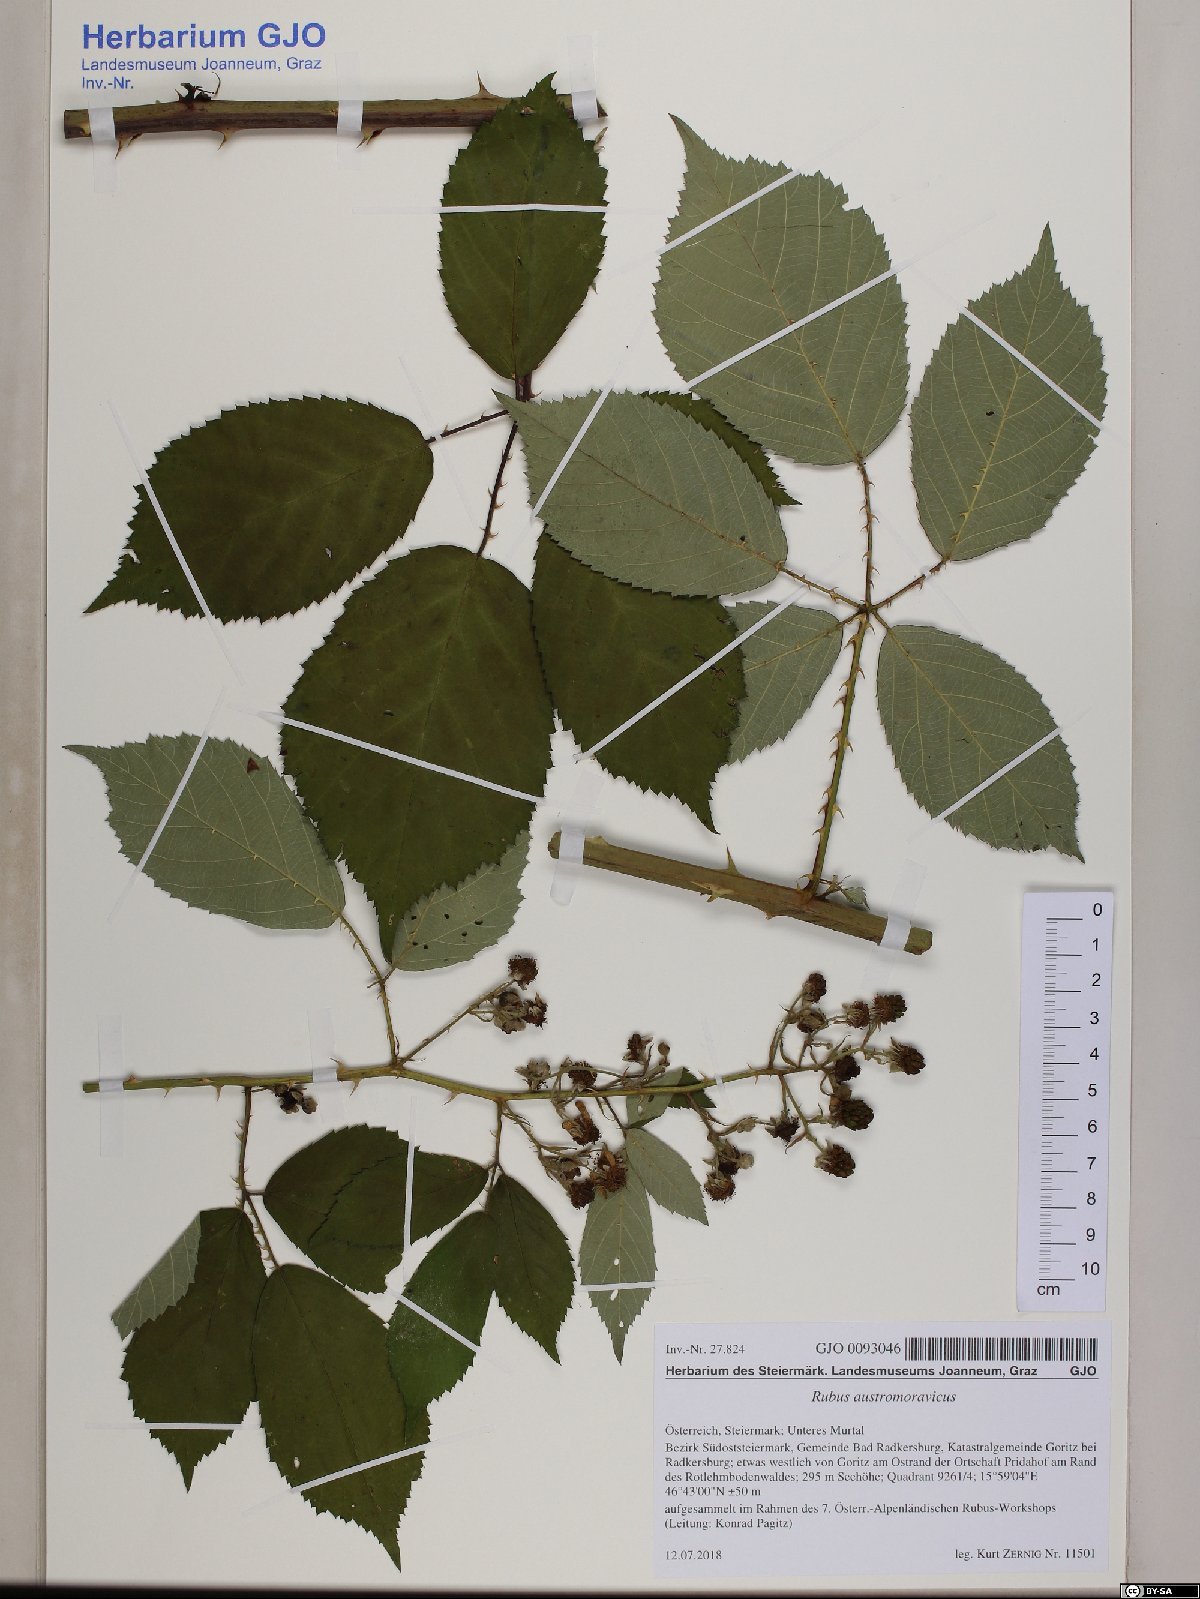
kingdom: Plantae
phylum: Tracheophyta
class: Magnoliopsida
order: Rosales
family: Rosaceae
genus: Rubus
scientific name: Rubus austromoravicus
